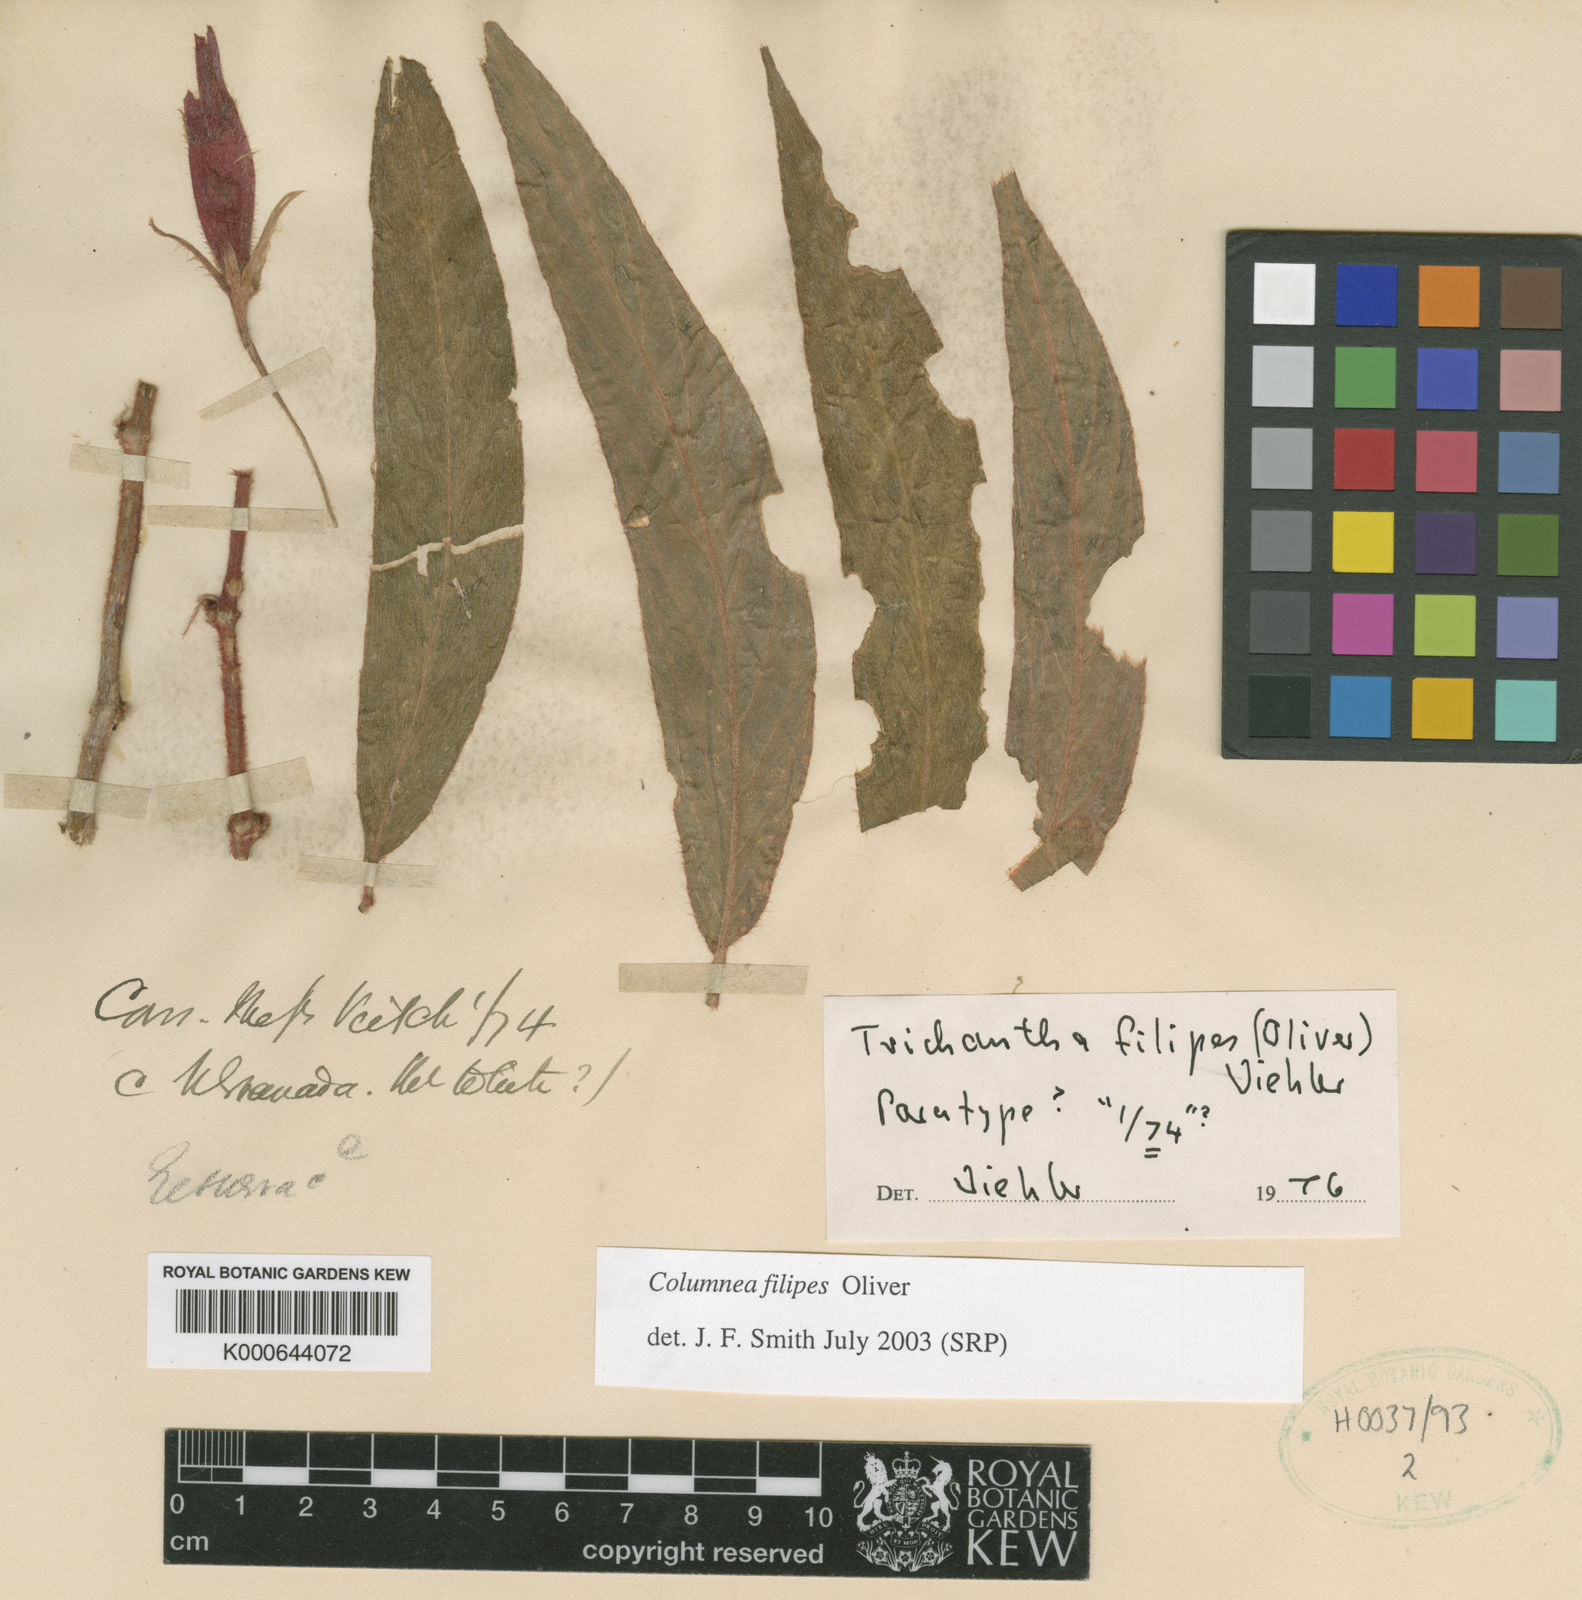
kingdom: Plantae
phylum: Tracheophyta
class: Magnoliopsida
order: Lamiales
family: Gesneriaceae
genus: Columnea
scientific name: Columnea filipes
